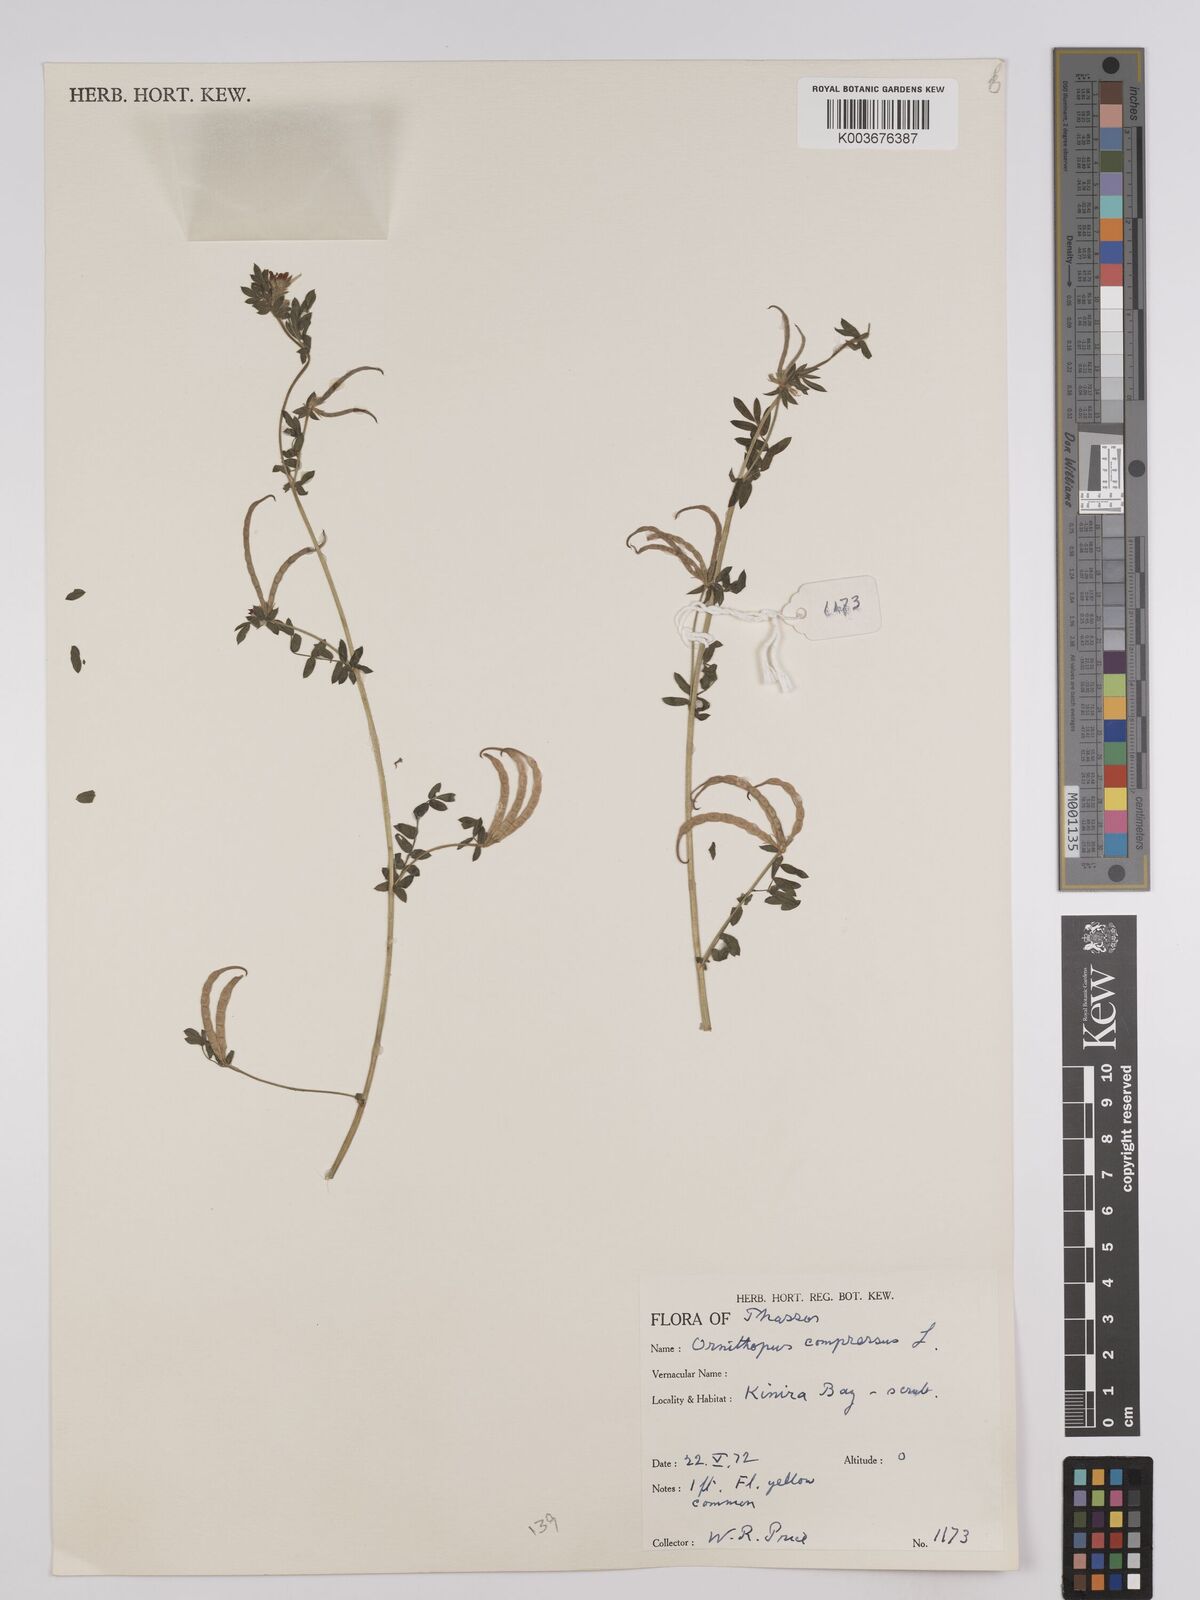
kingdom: Plantae
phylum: Tracheophyta
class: Magnoliopsida
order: Fabales
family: Fabaceae
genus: Ornithopus
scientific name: Ornithopus compressus
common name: Yellow serradella
